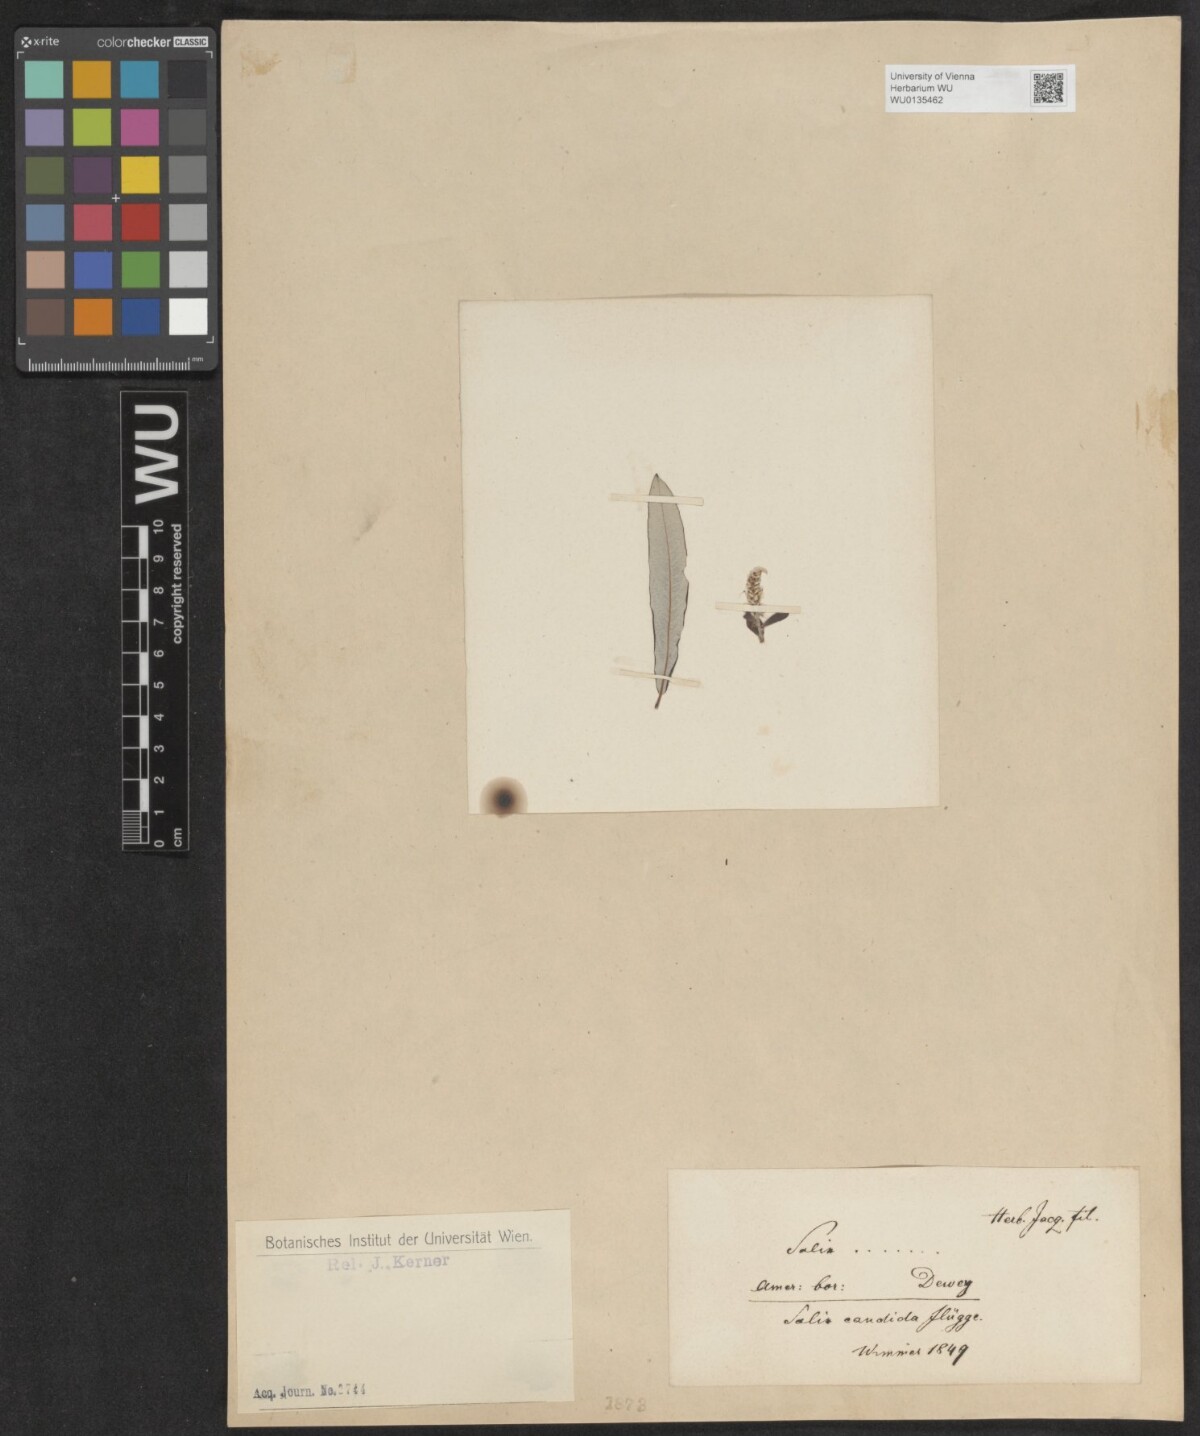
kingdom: Plantae
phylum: Tracheophyta
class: Magnoliopsida
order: Malpighiales
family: Salicaceae
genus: Salix
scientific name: Salix candida
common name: Hoary willow
